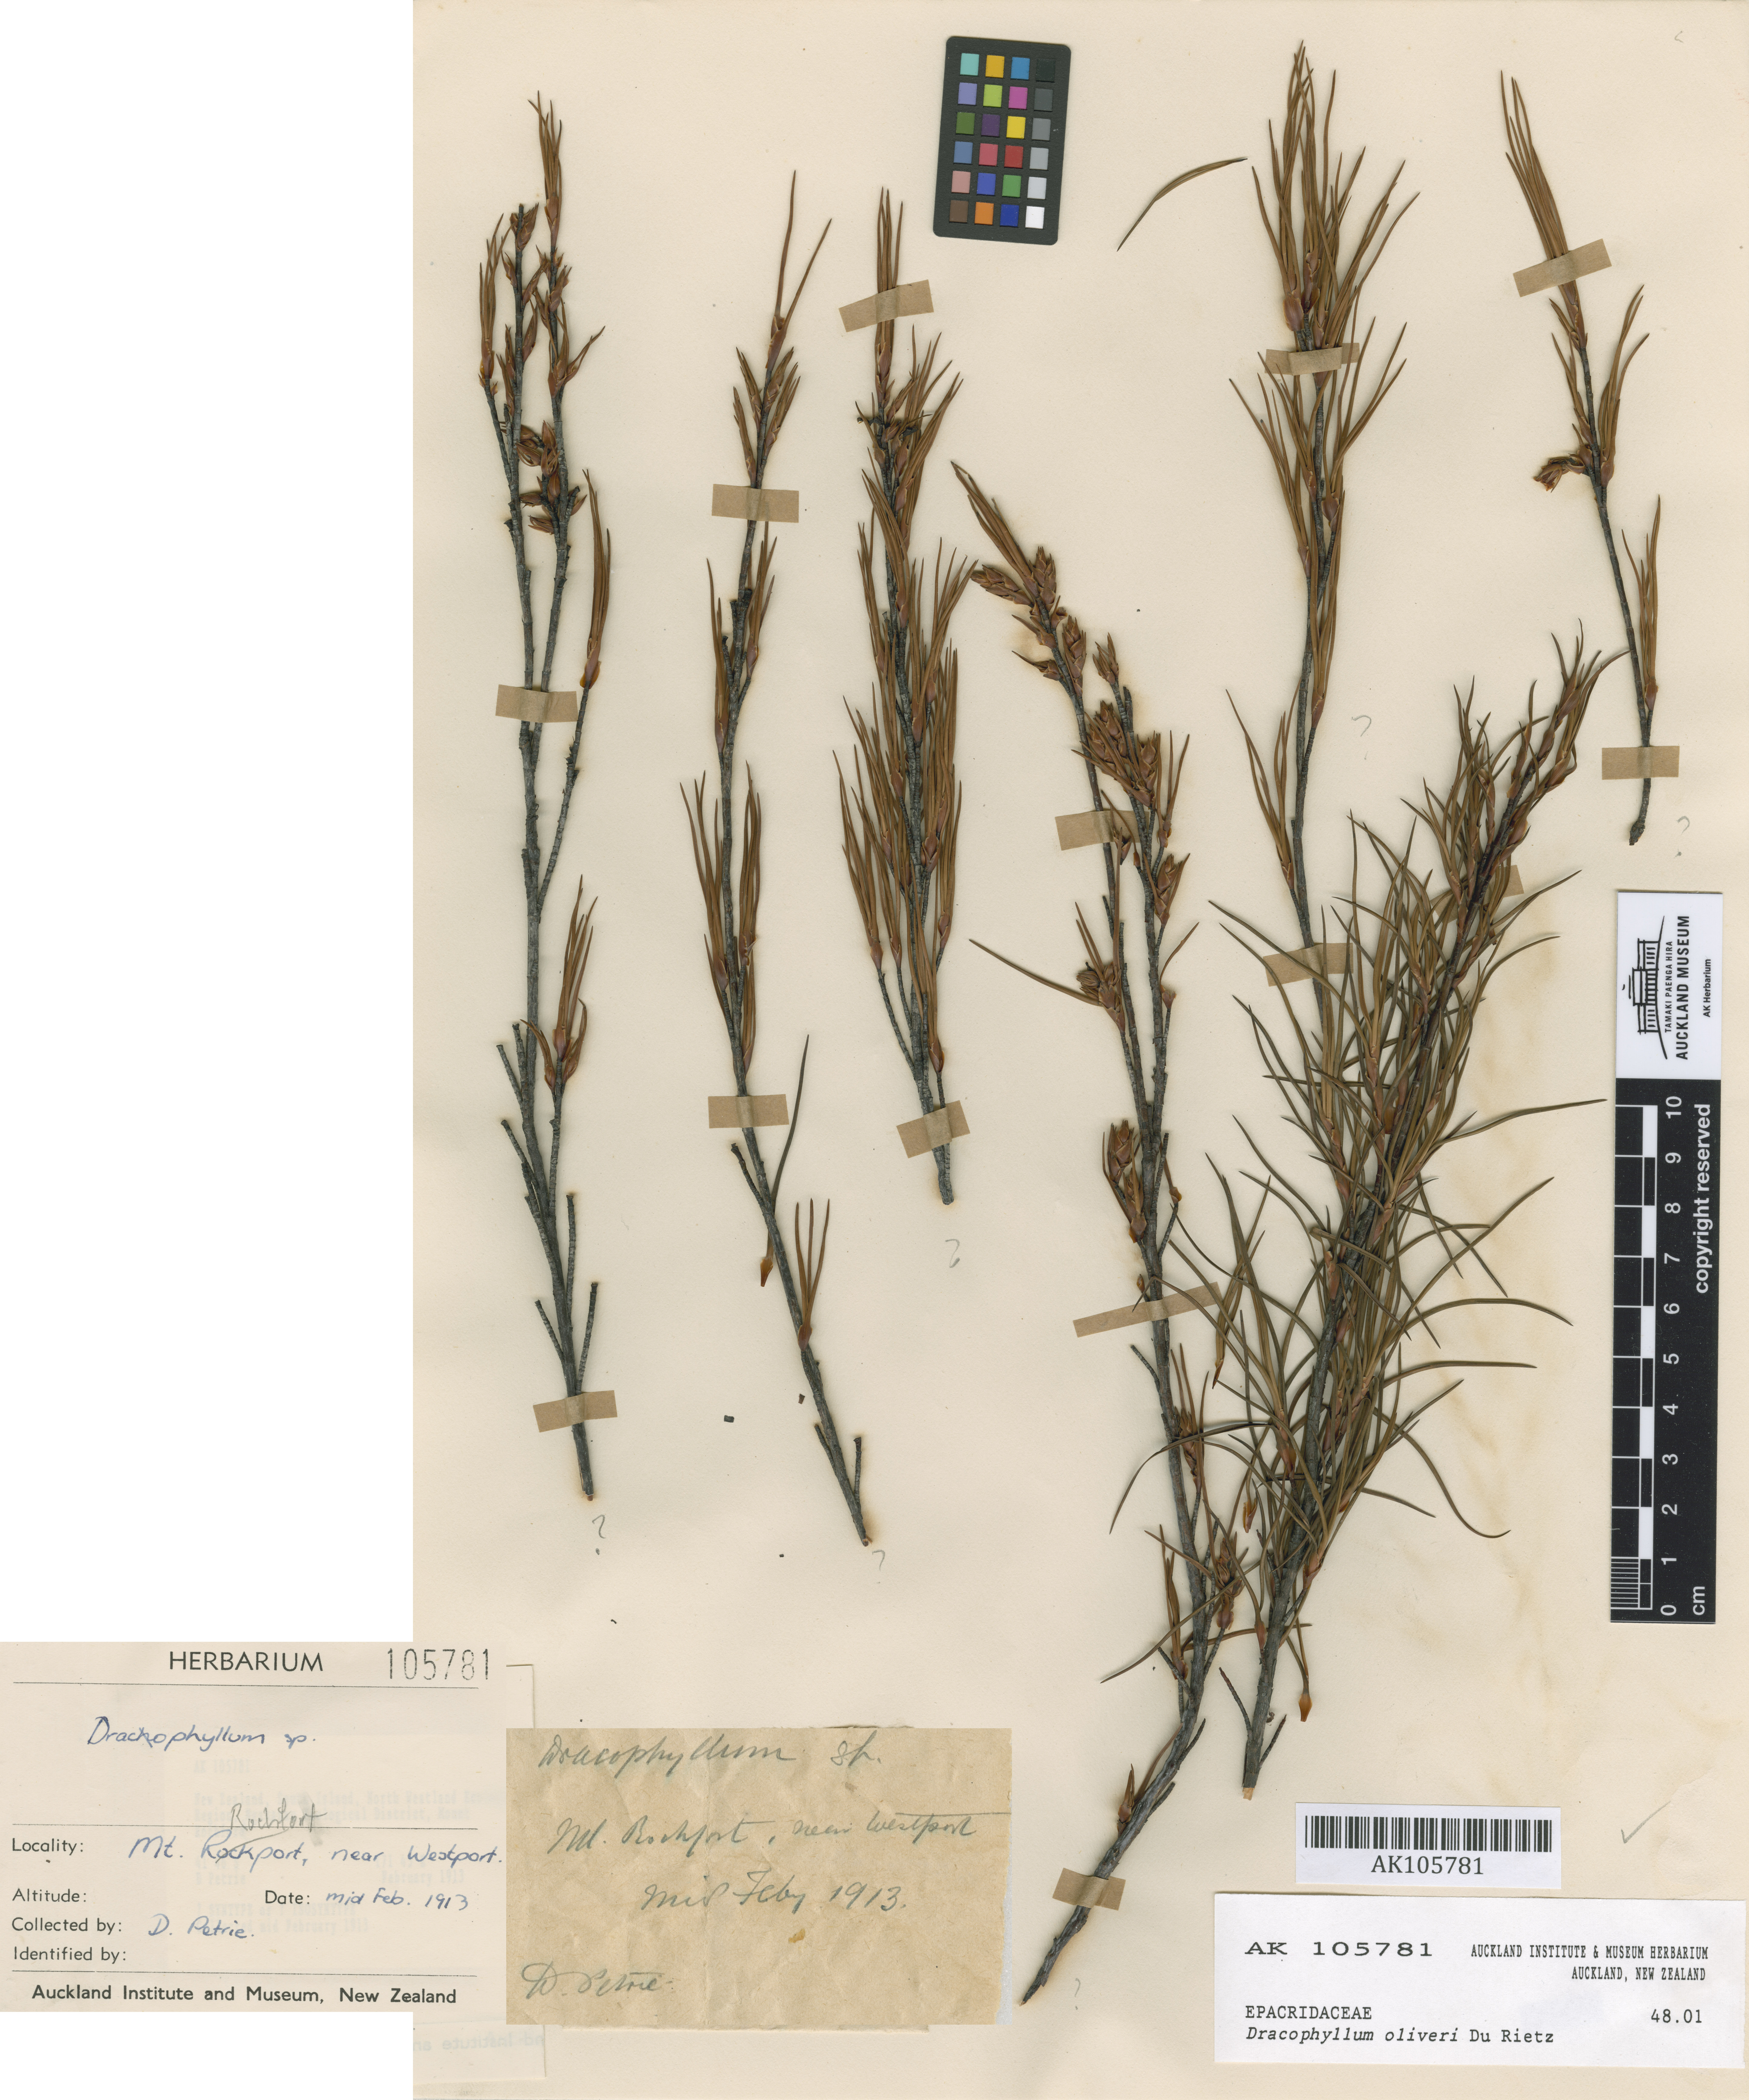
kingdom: Plantae
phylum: Tracheophyta
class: Magnoliopsida
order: Ericales
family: Ericaceae
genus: Dracophyllum
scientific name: Dracophyllum oliveri
